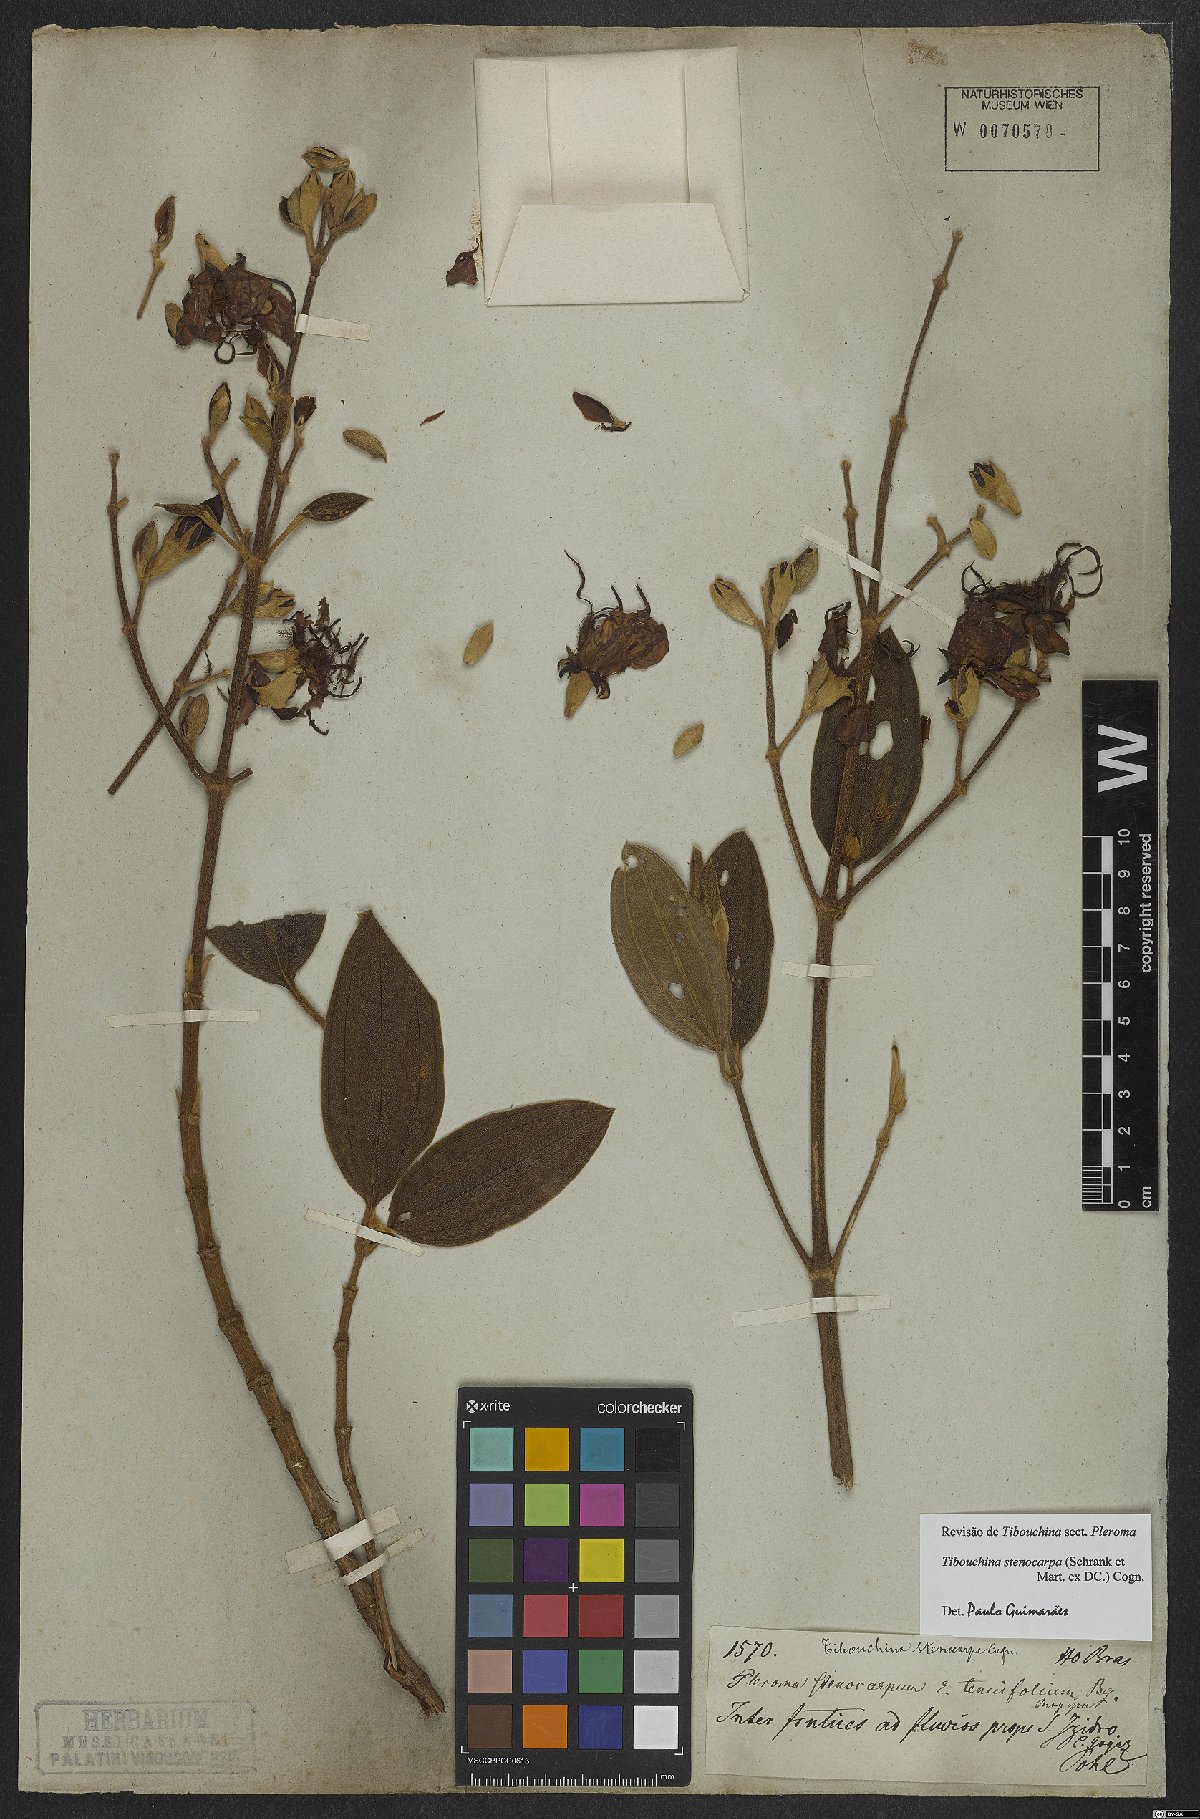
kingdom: Plantae
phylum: Tracheophyta
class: Magnoliopsida
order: Myrtales
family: Melastomataceae
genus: Pleroma
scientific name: Pleroma stenocarpum
